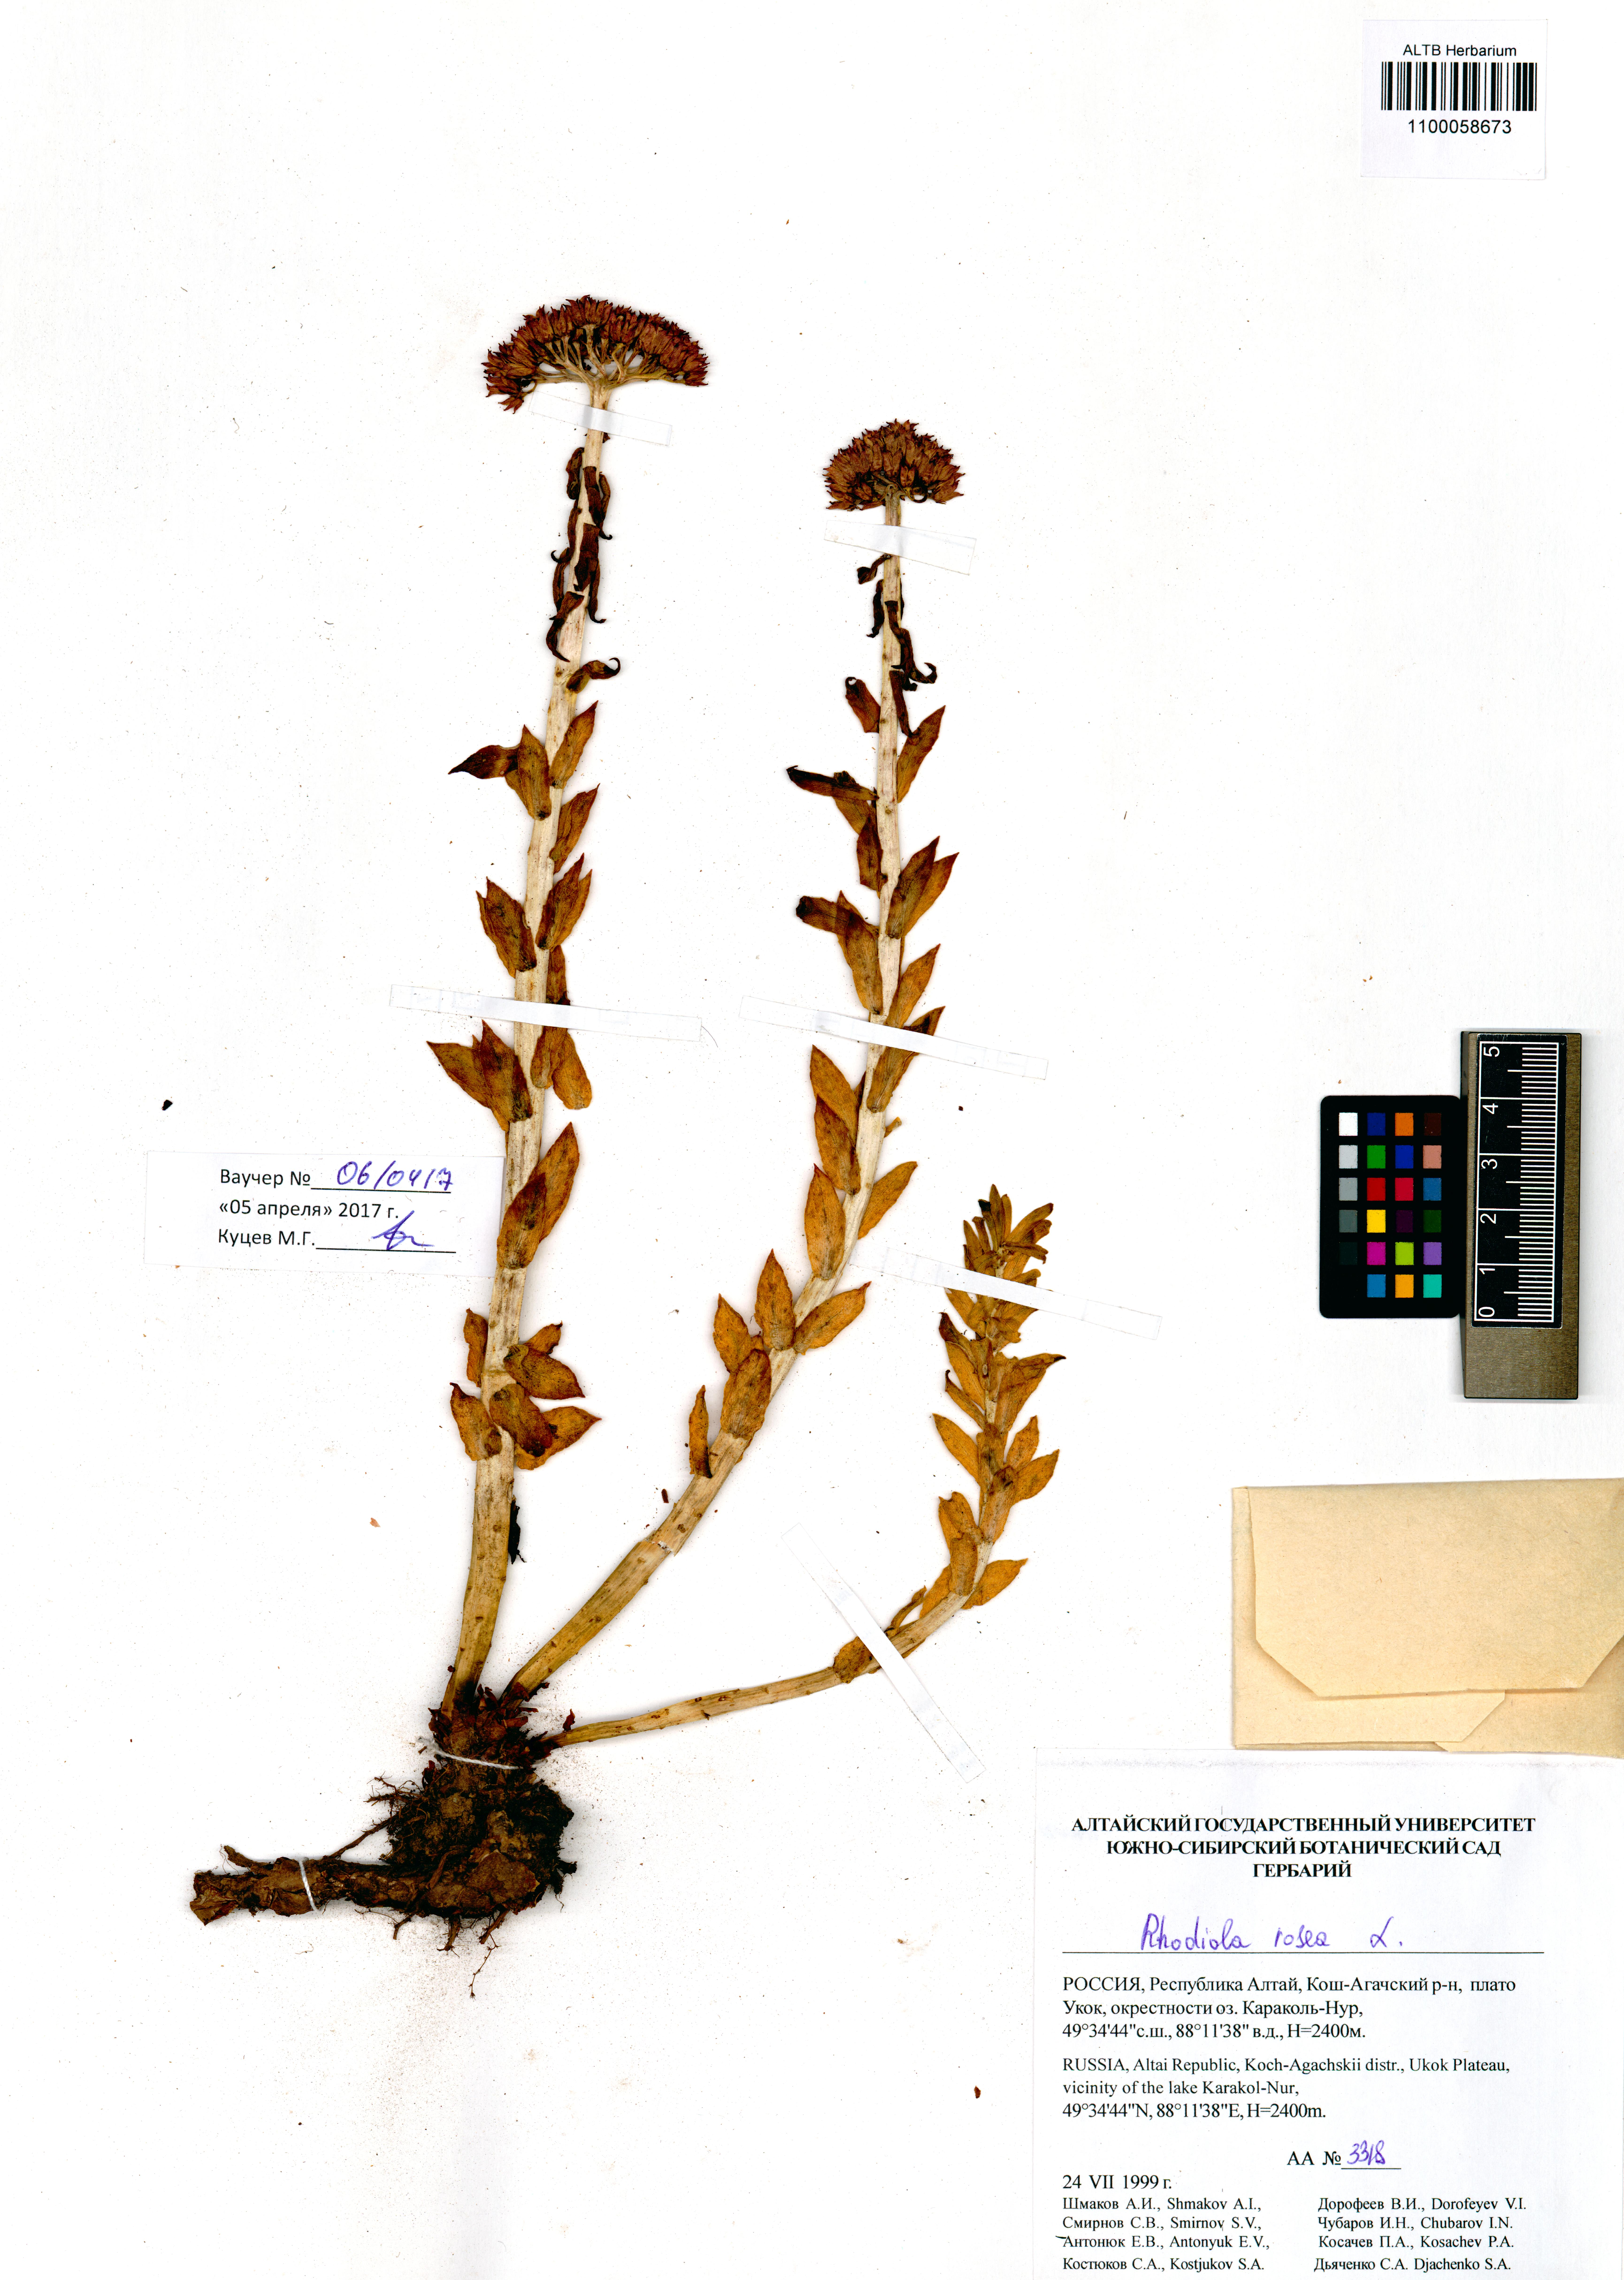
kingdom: Plantae
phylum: Tracheophyta
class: Magnoliopsida
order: Saxifragales
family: Crassulaceae
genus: Rhodiola
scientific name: Rhodiola rosea
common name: Roseroot
